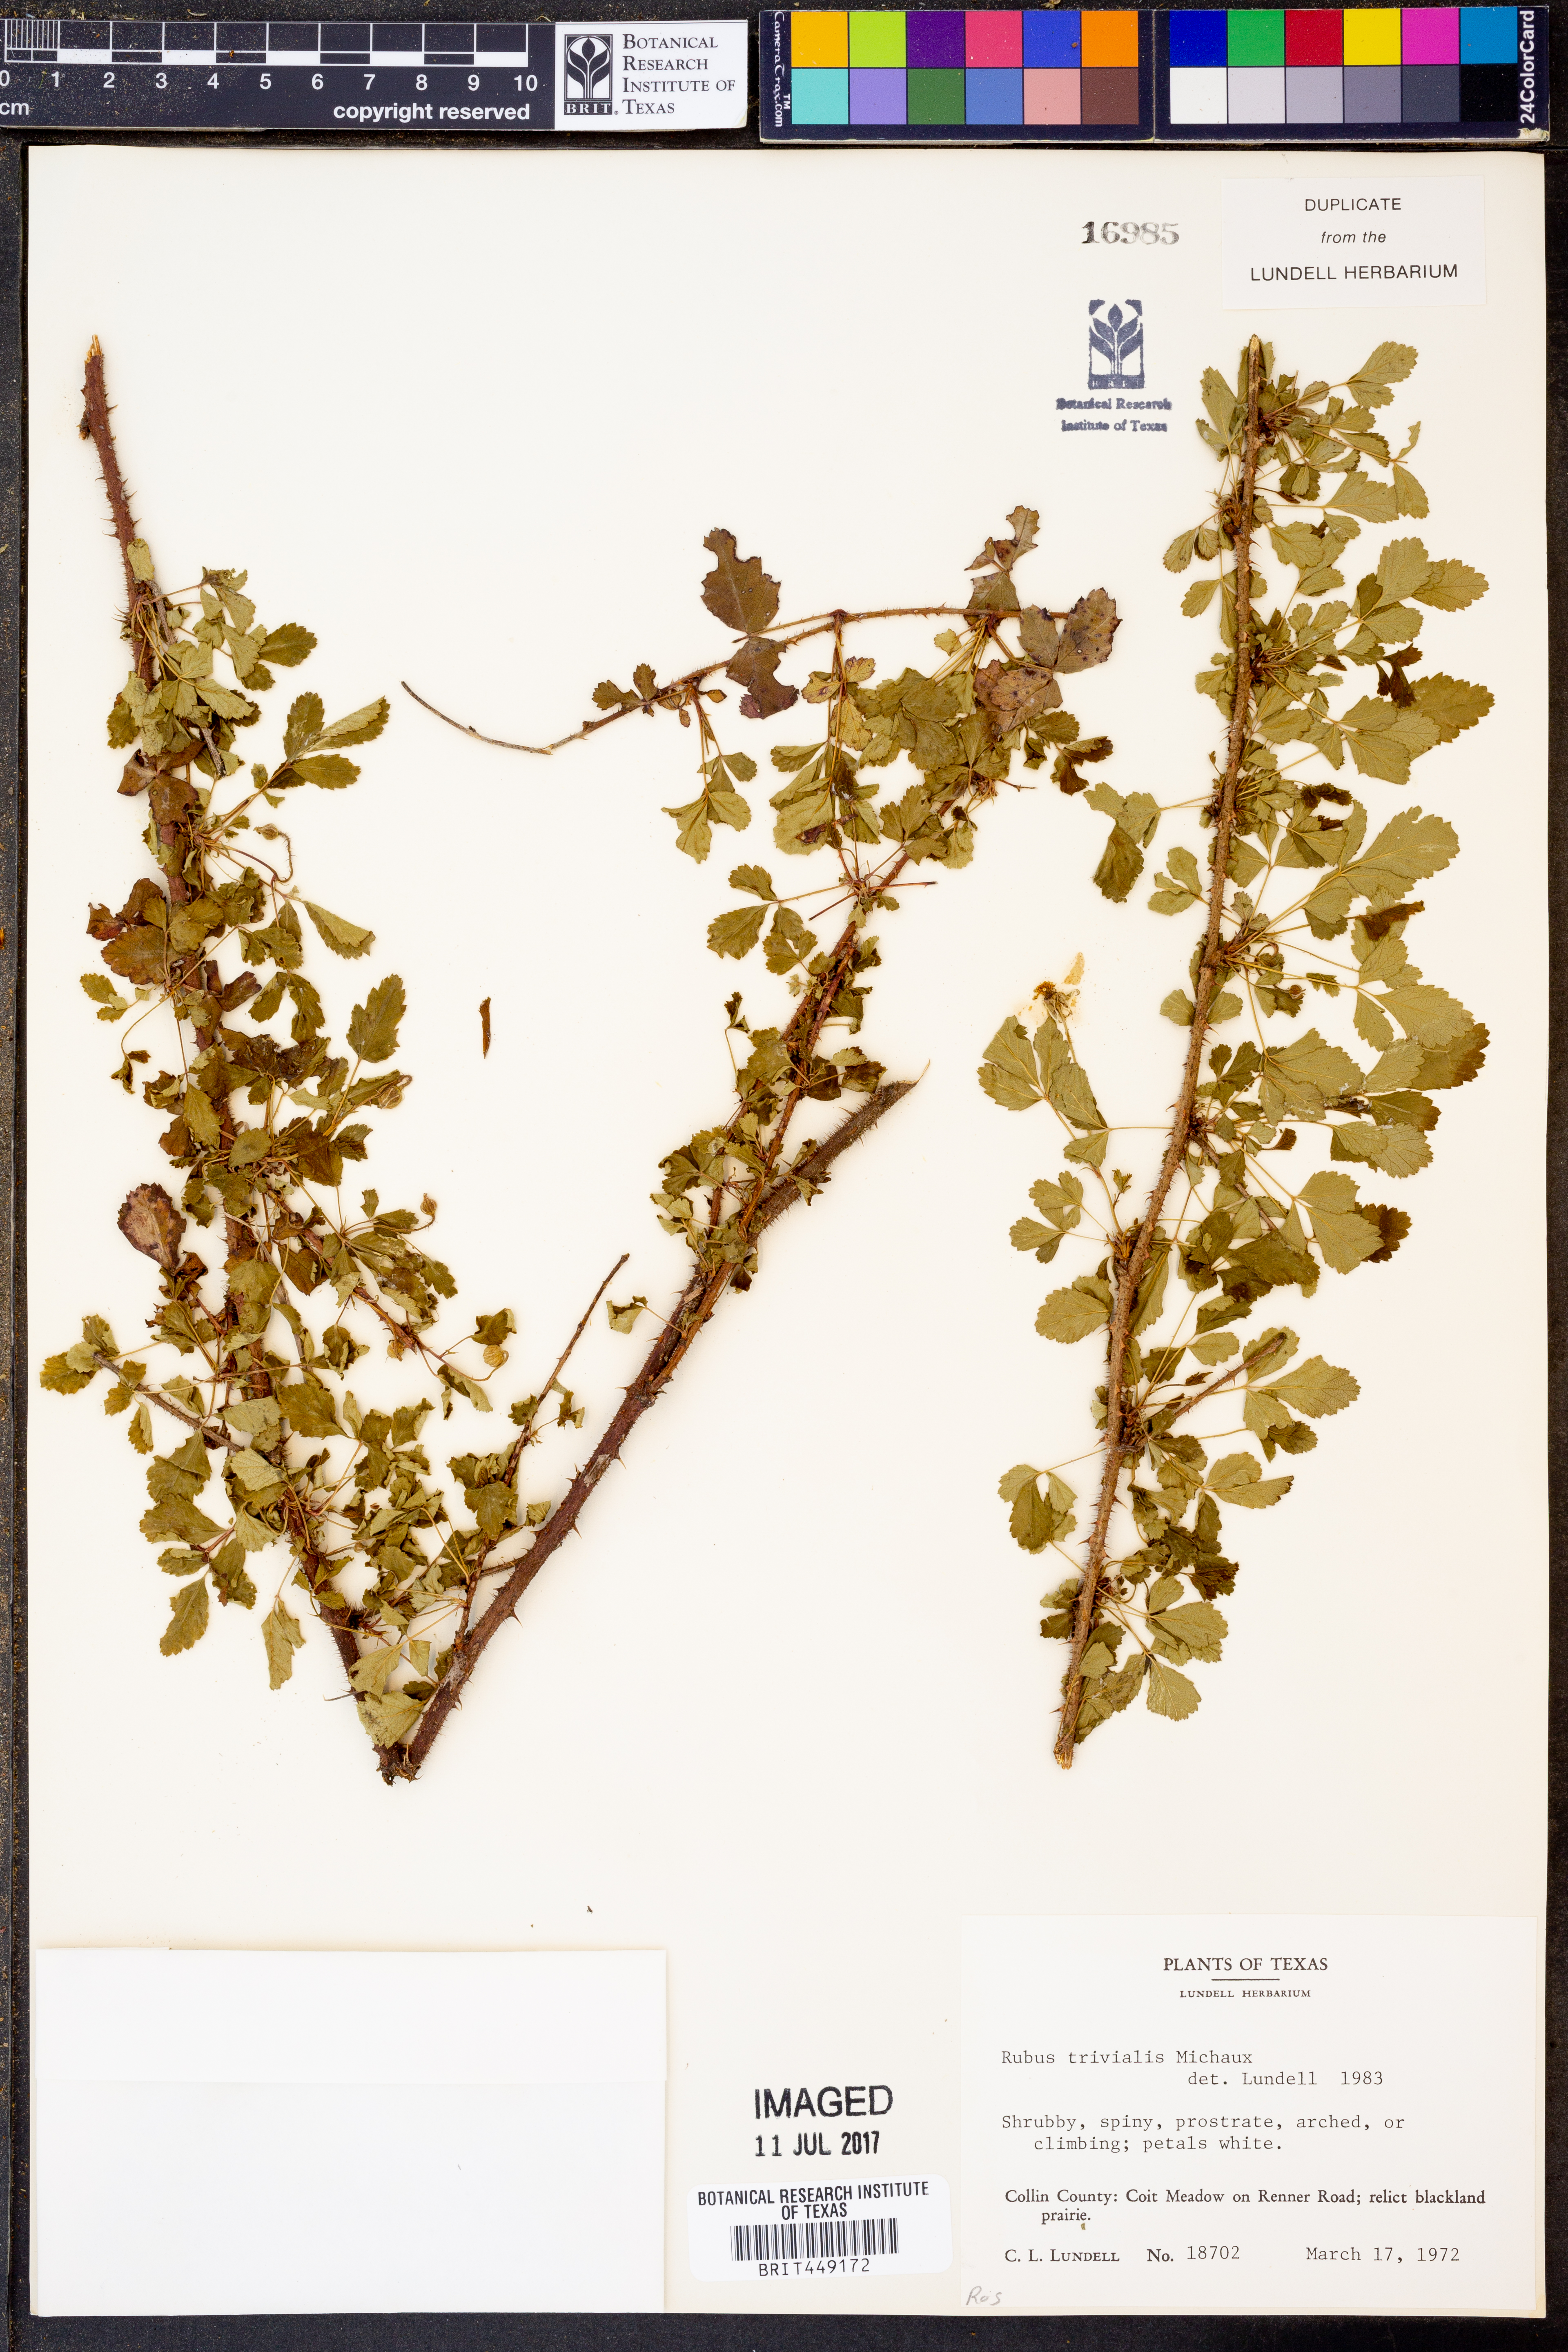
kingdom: Plantae
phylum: Tracheophyta
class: Magnoliopsida
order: Rosales
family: Rosaceae
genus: Rubus
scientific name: Rubus trivialis
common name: Southern dewberry
